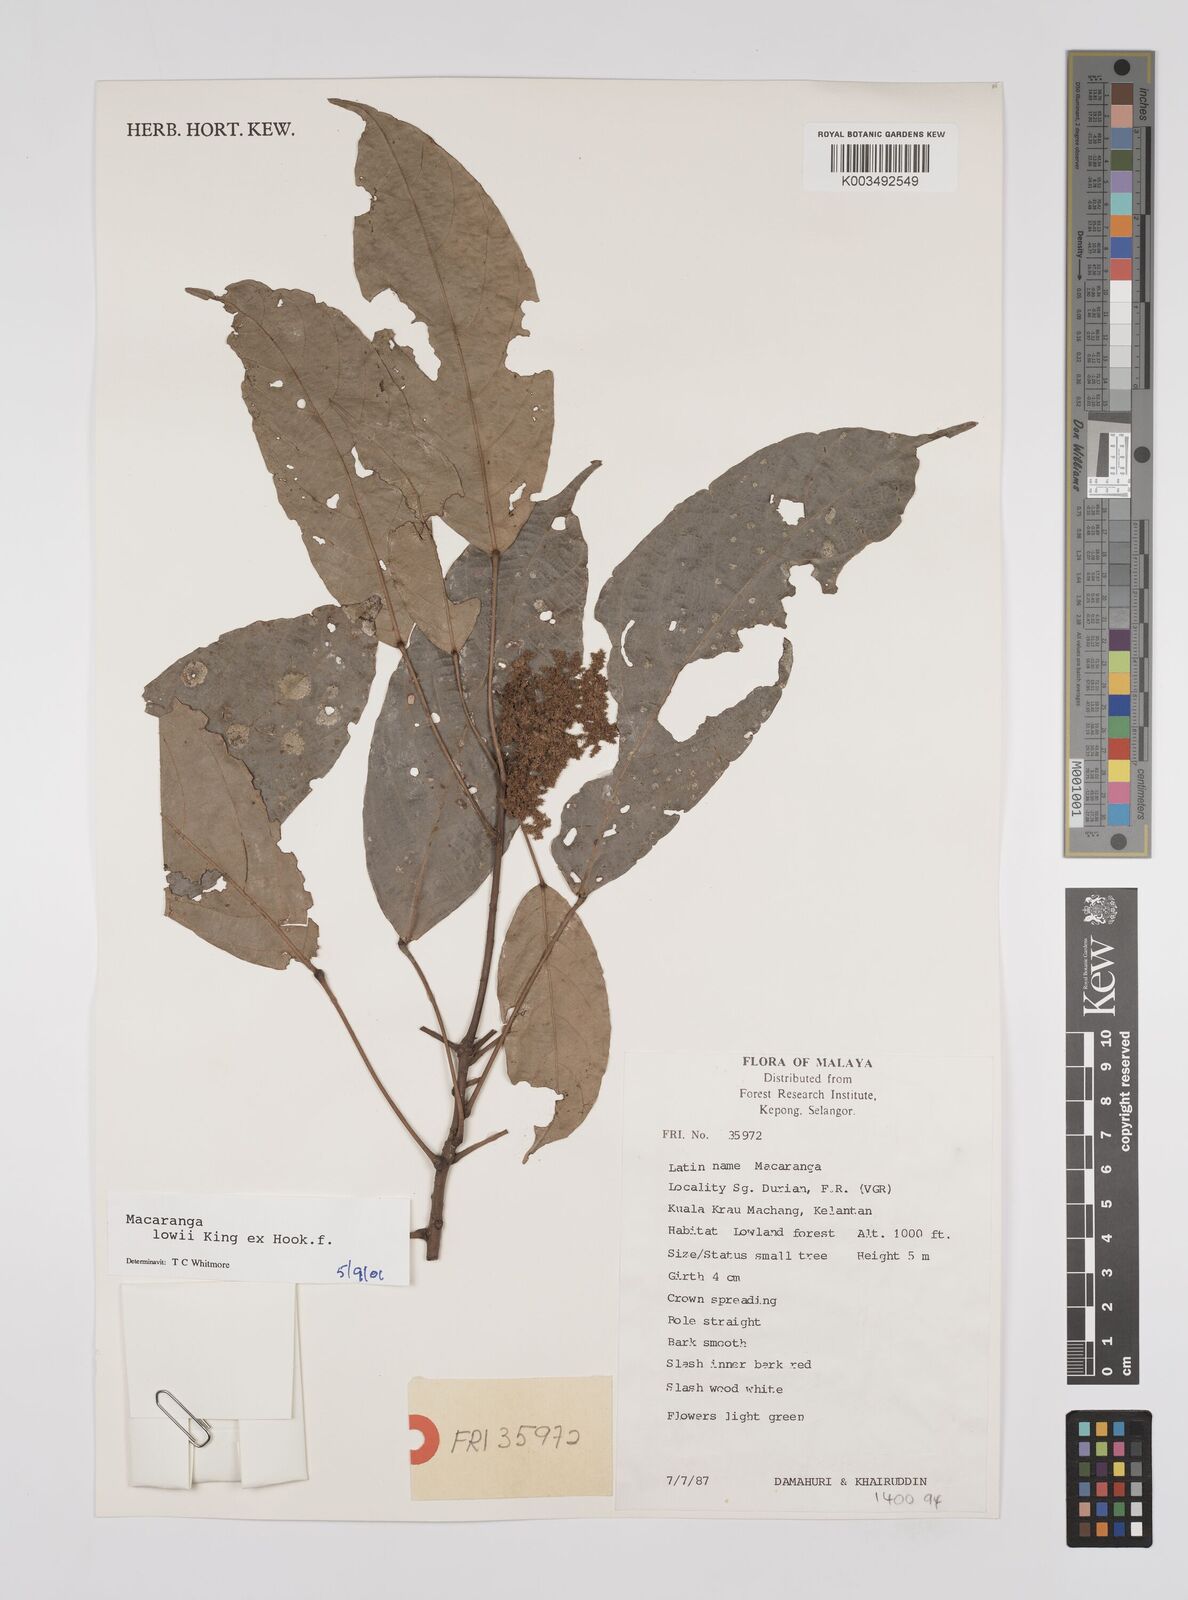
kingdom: Plantae
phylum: Tracheophyta
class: Magnoliopsida
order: Malpighiales
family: Euphorbiaceae
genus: Macaranga
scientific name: Macaranga lowii
